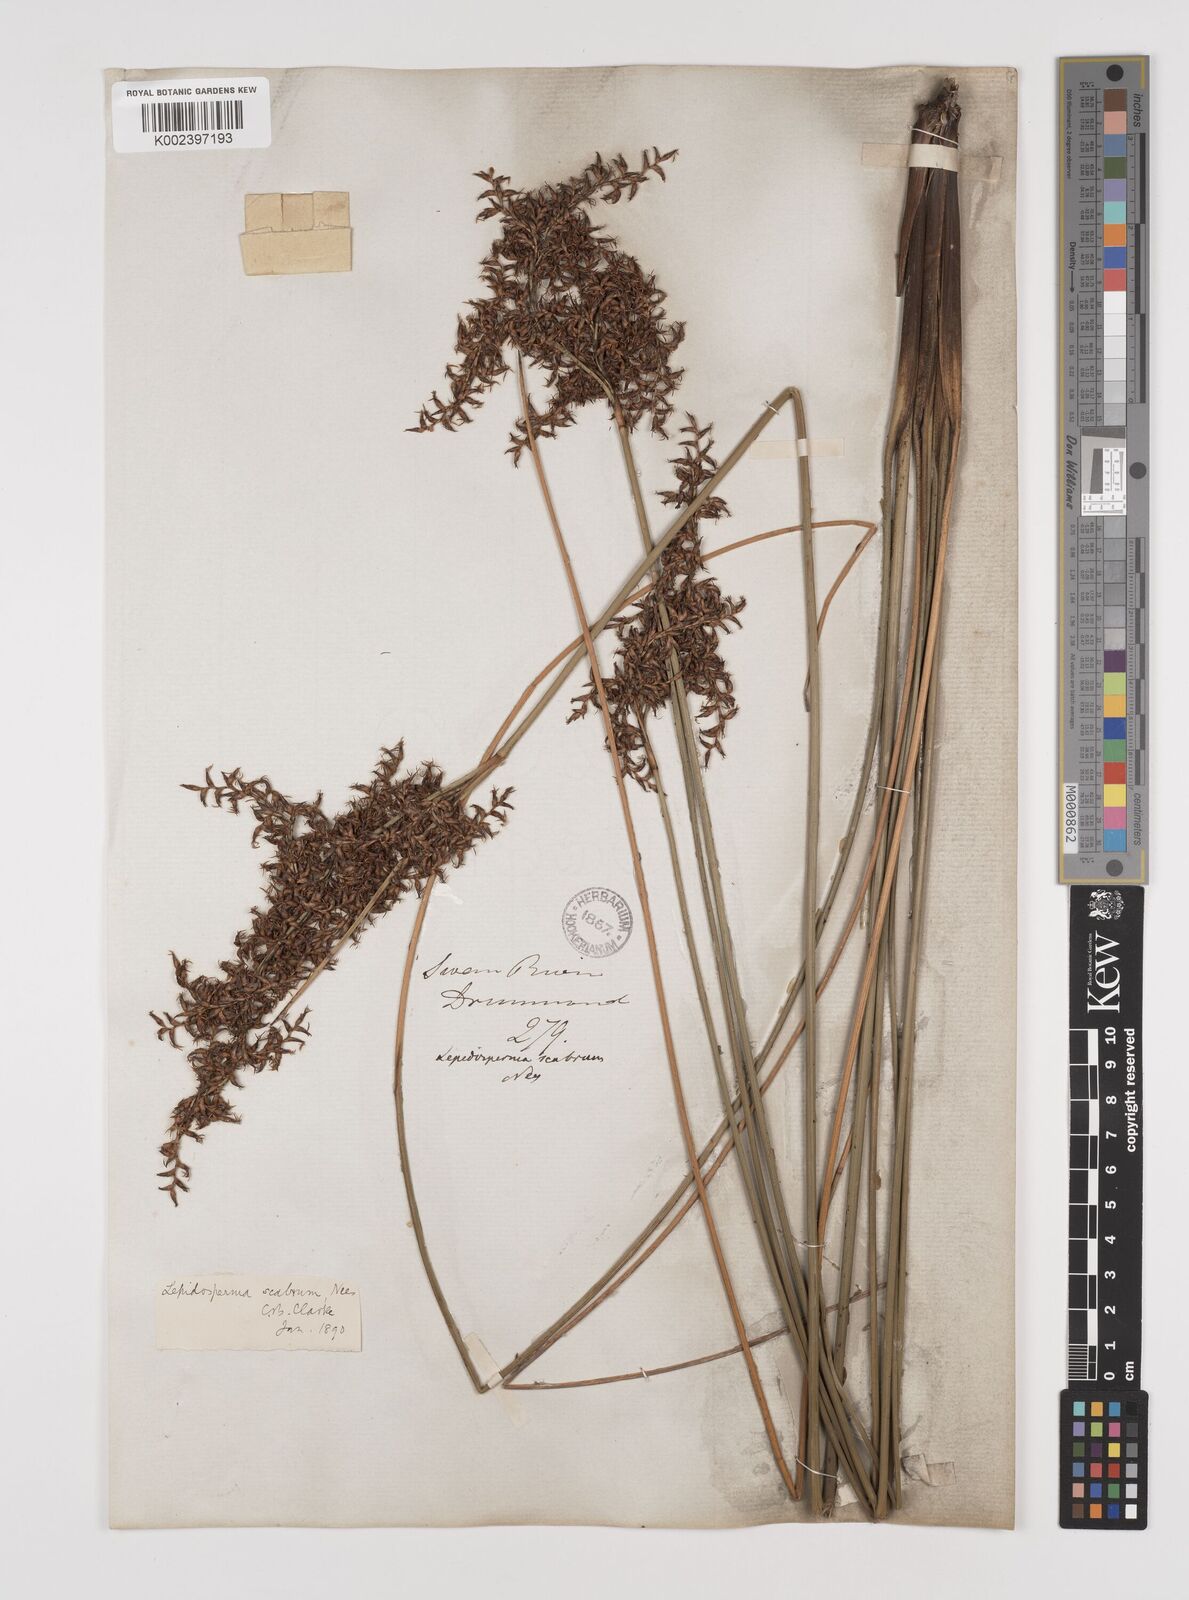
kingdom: Plantae
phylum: Tracheophyta
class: Liliopsida
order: Poales
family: Cyperaceae
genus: Lepidosperma
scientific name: Lepidosperma scabrum
